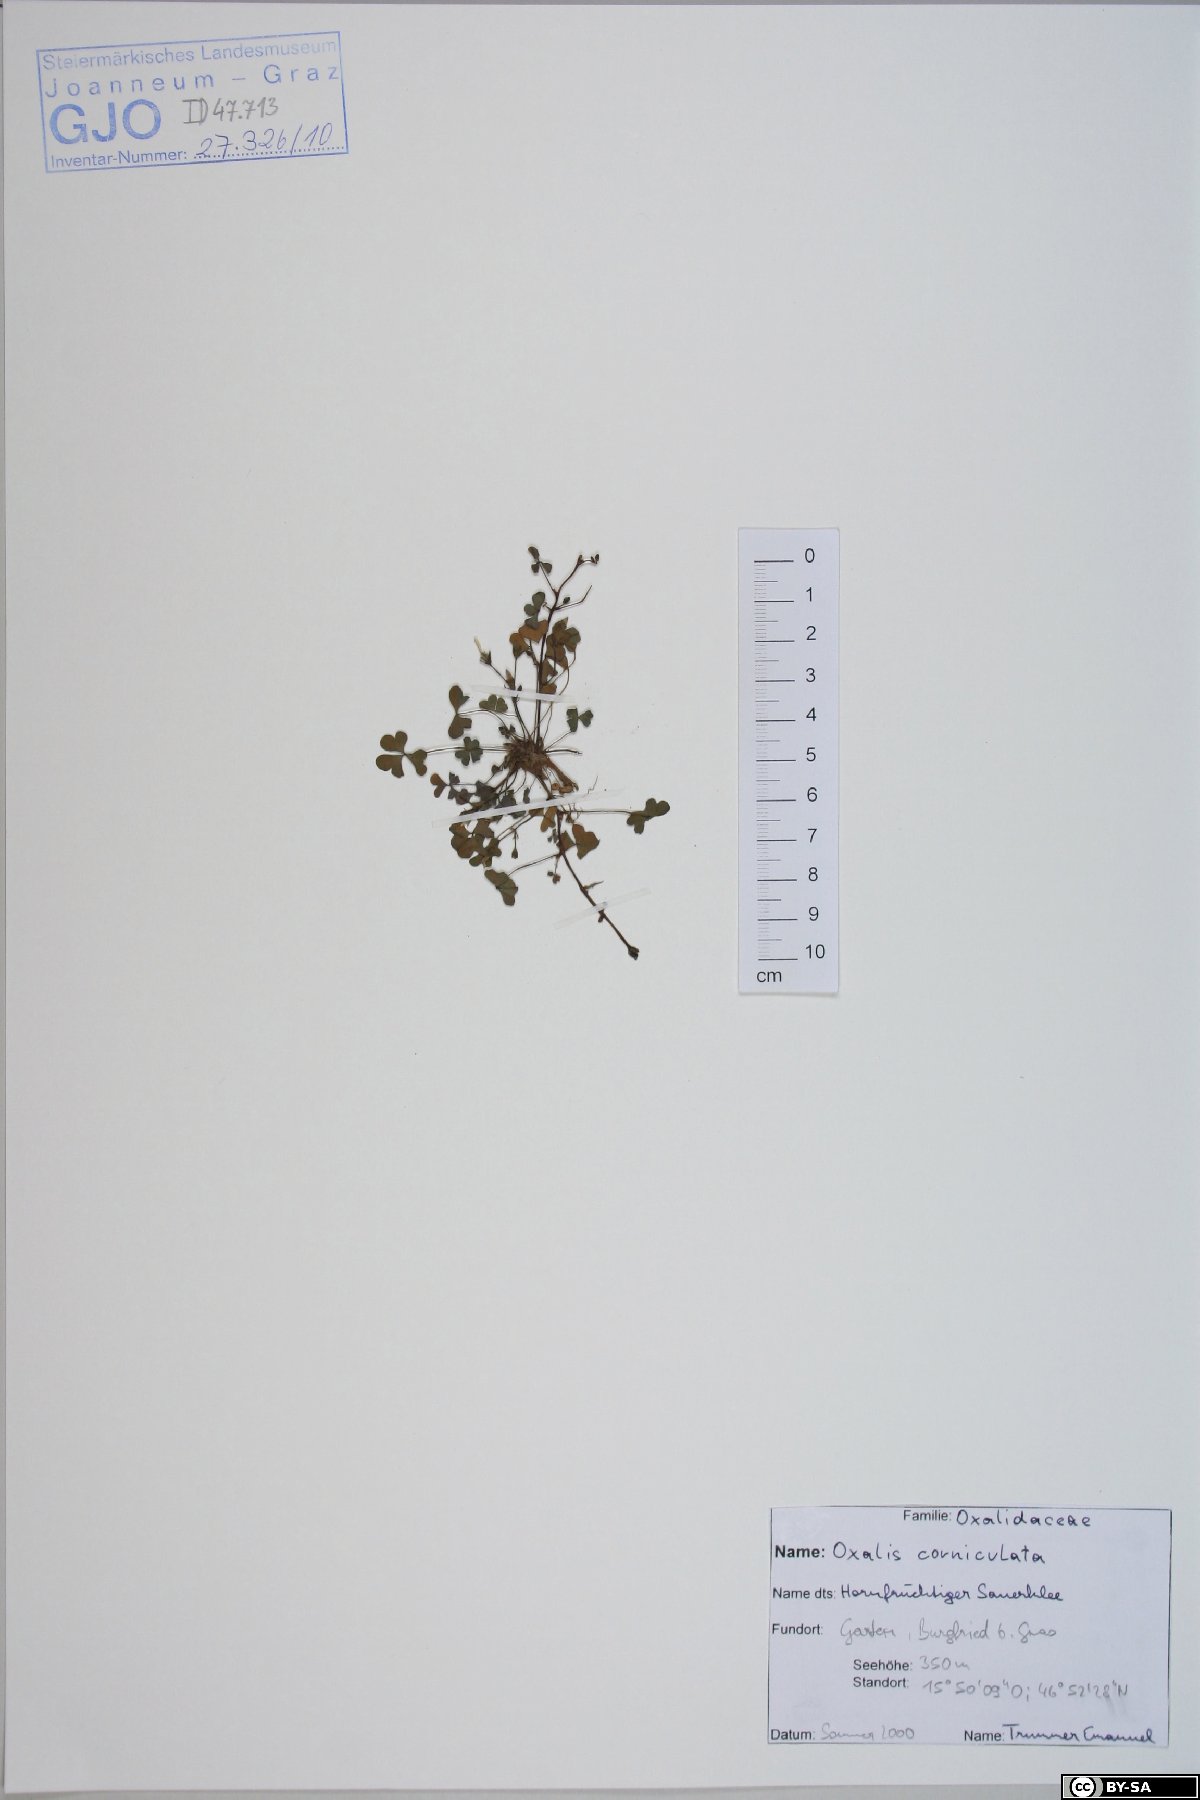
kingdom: Plantae
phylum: Tracheophyta
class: Magnoliopsida
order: Oxalidales
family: Oxalidaceae
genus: Oxalis
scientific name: Oxalis corniculata
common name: Procumbent yellow-sorrel
